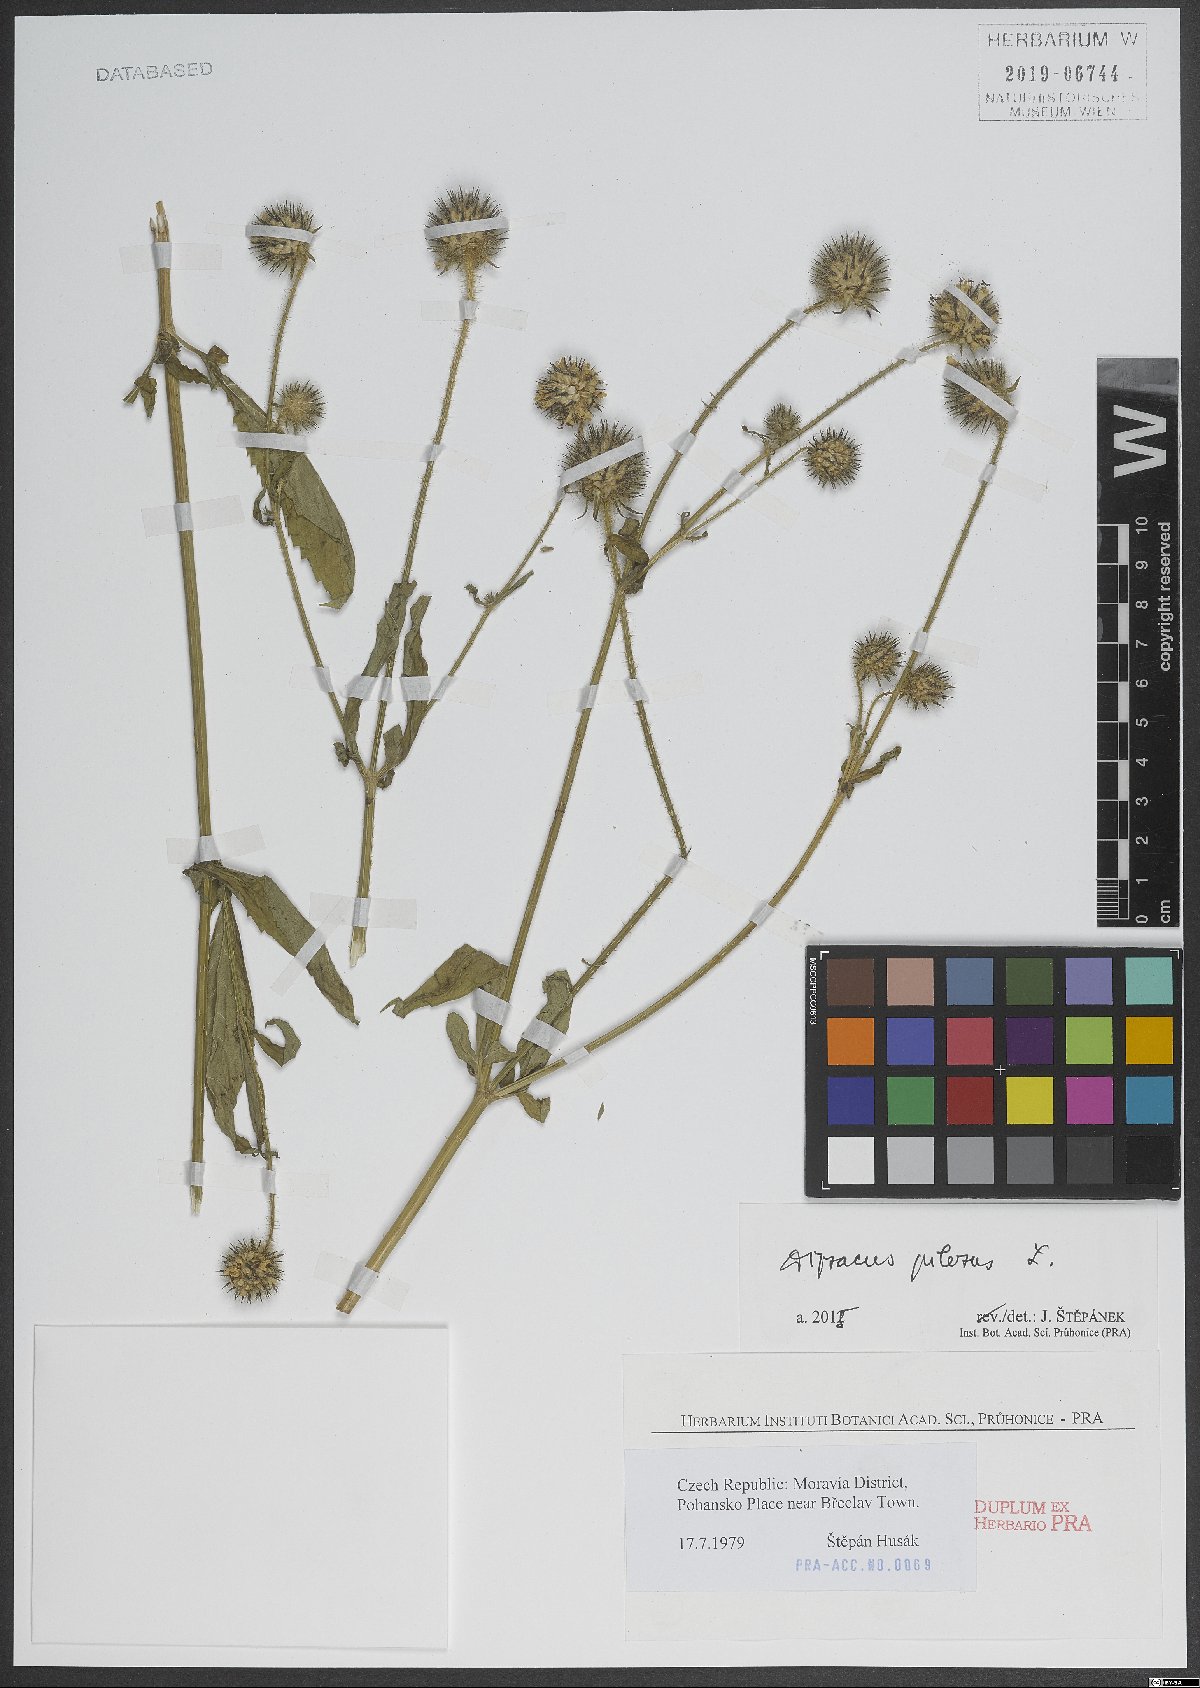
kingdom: Plantae
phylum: Tracheophyta
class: Magnoliopsida
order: Dipsacales
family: Caprifoliaceae
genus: Dipsacus
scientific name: Dipsacus pilosus
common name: Small teasel
